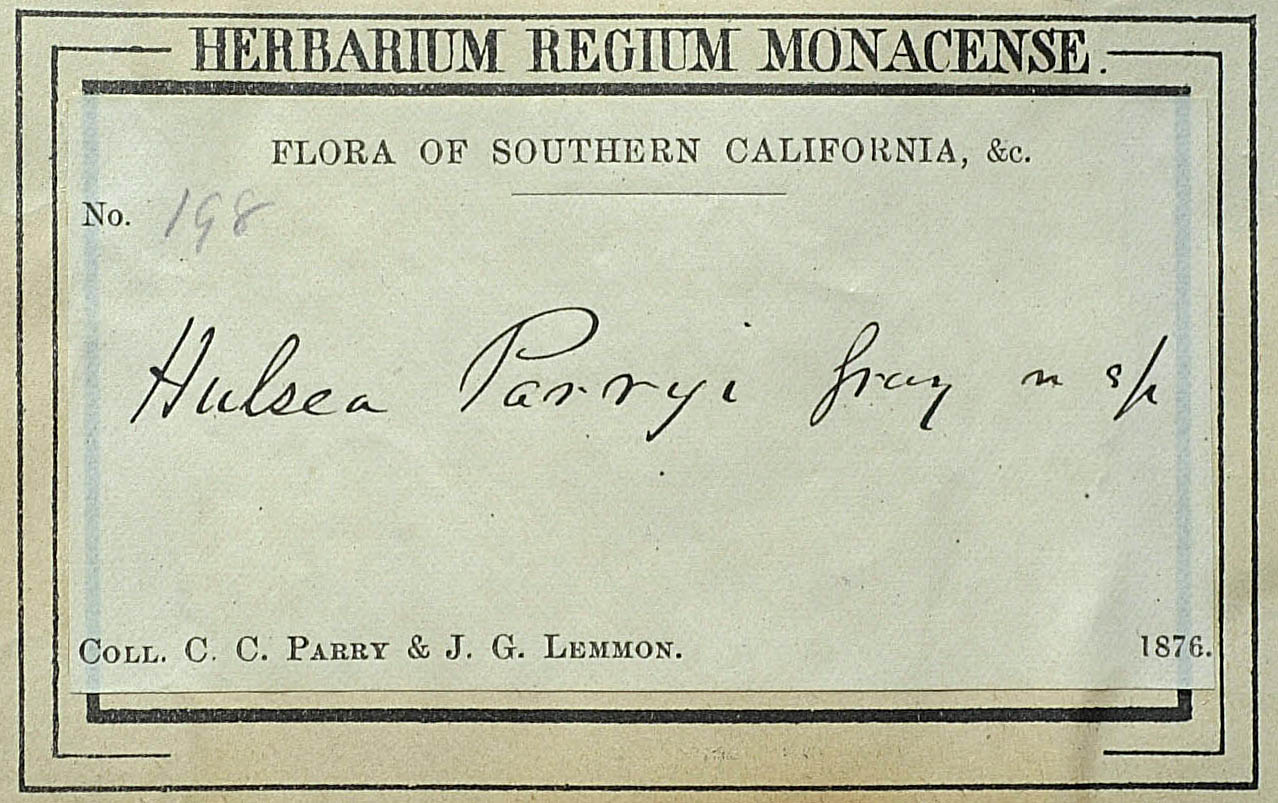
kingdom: Plantae
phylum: Tracheophyta
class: Magnoliopsida
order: Asterales
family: Asteraceae
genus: Hulsea
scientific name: Hulsea vestita
